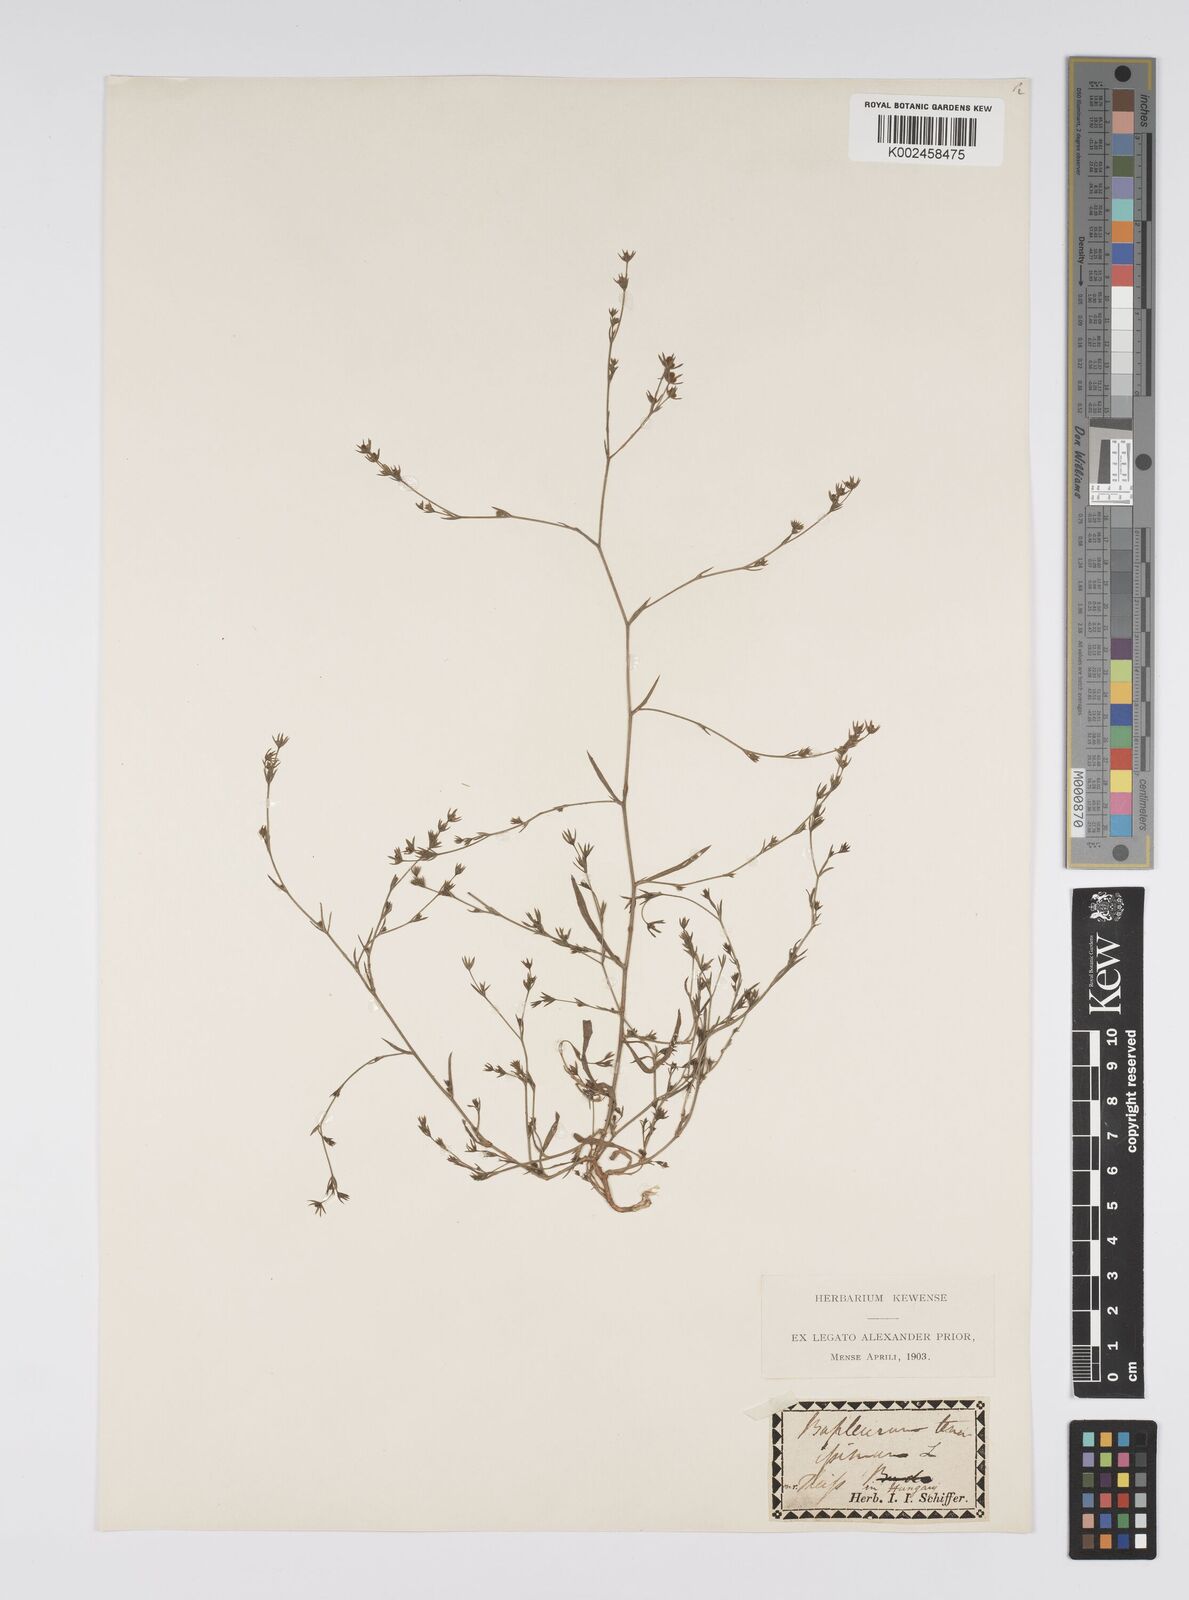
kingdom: Plantae
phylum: Tracheophyta
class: Magnoliopsida
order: Apiales
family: Apiaceae
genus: Bupleurum
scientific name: Bupleurum tenuissimum
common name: Slender hare's-ear
